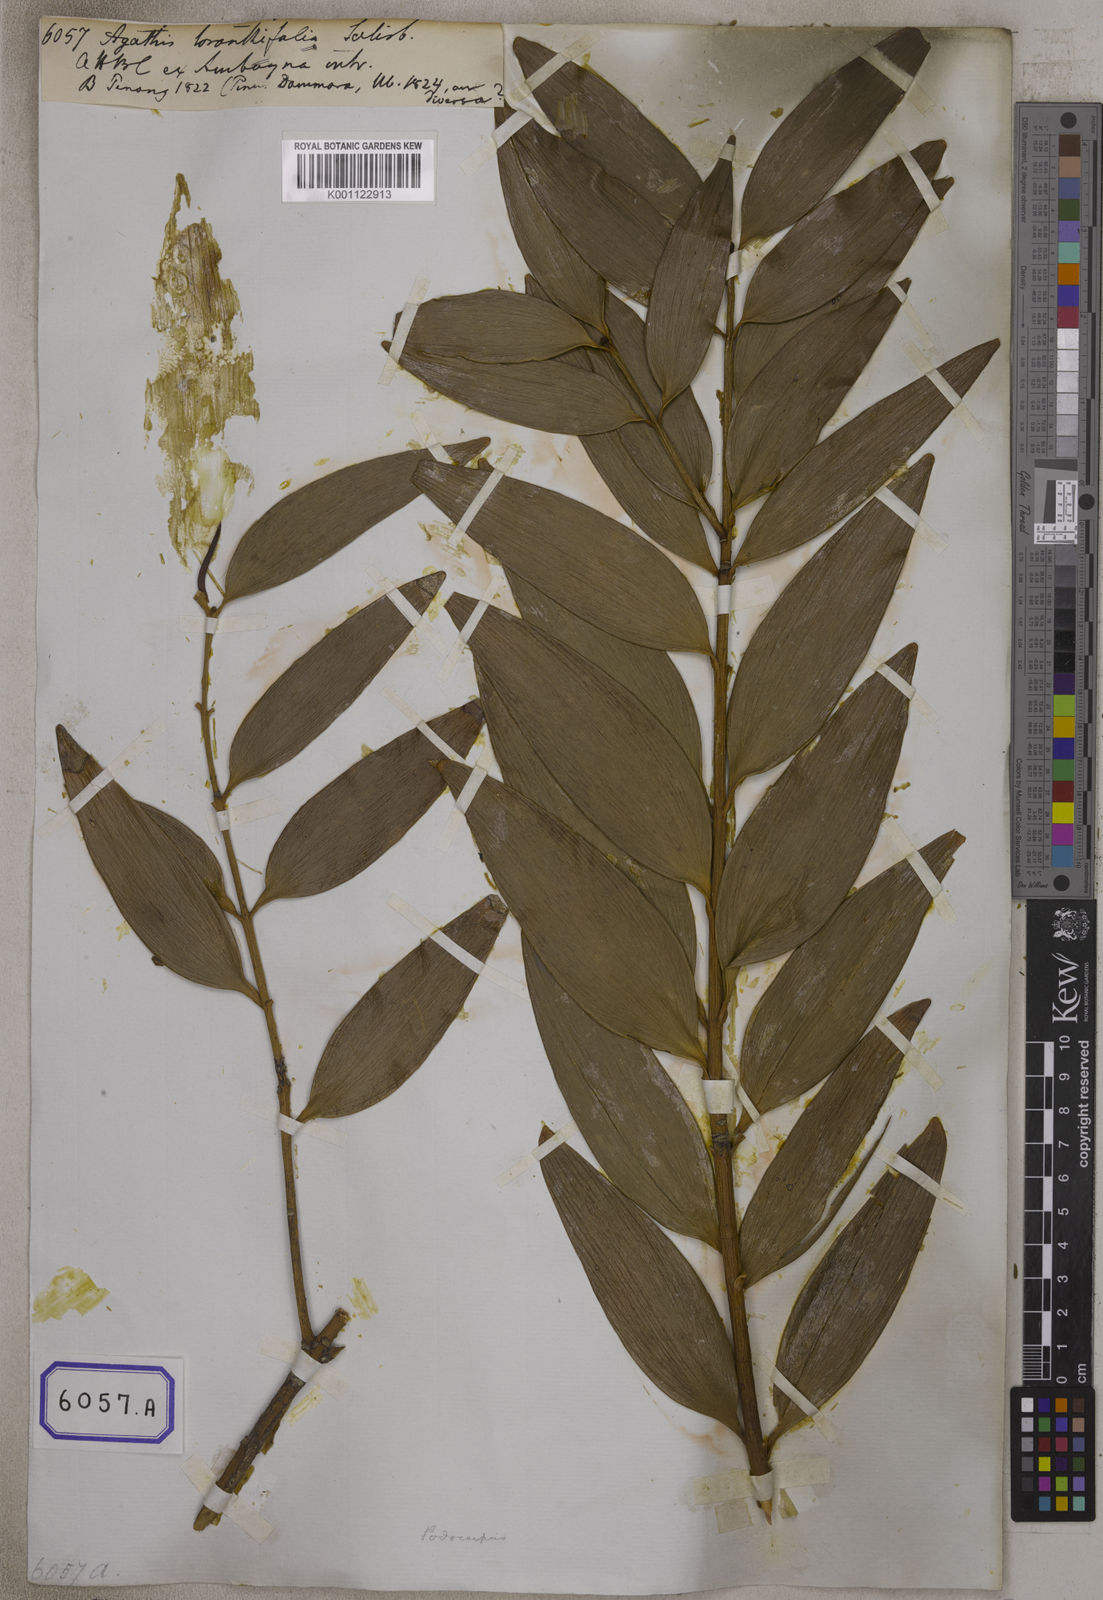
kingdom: Plantae
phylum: Tracheophyta
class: Pinopsida
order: Pinales
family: Araucariaceae
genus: Agathis
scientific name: Agathis dammara
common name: Amboina pitch tree
